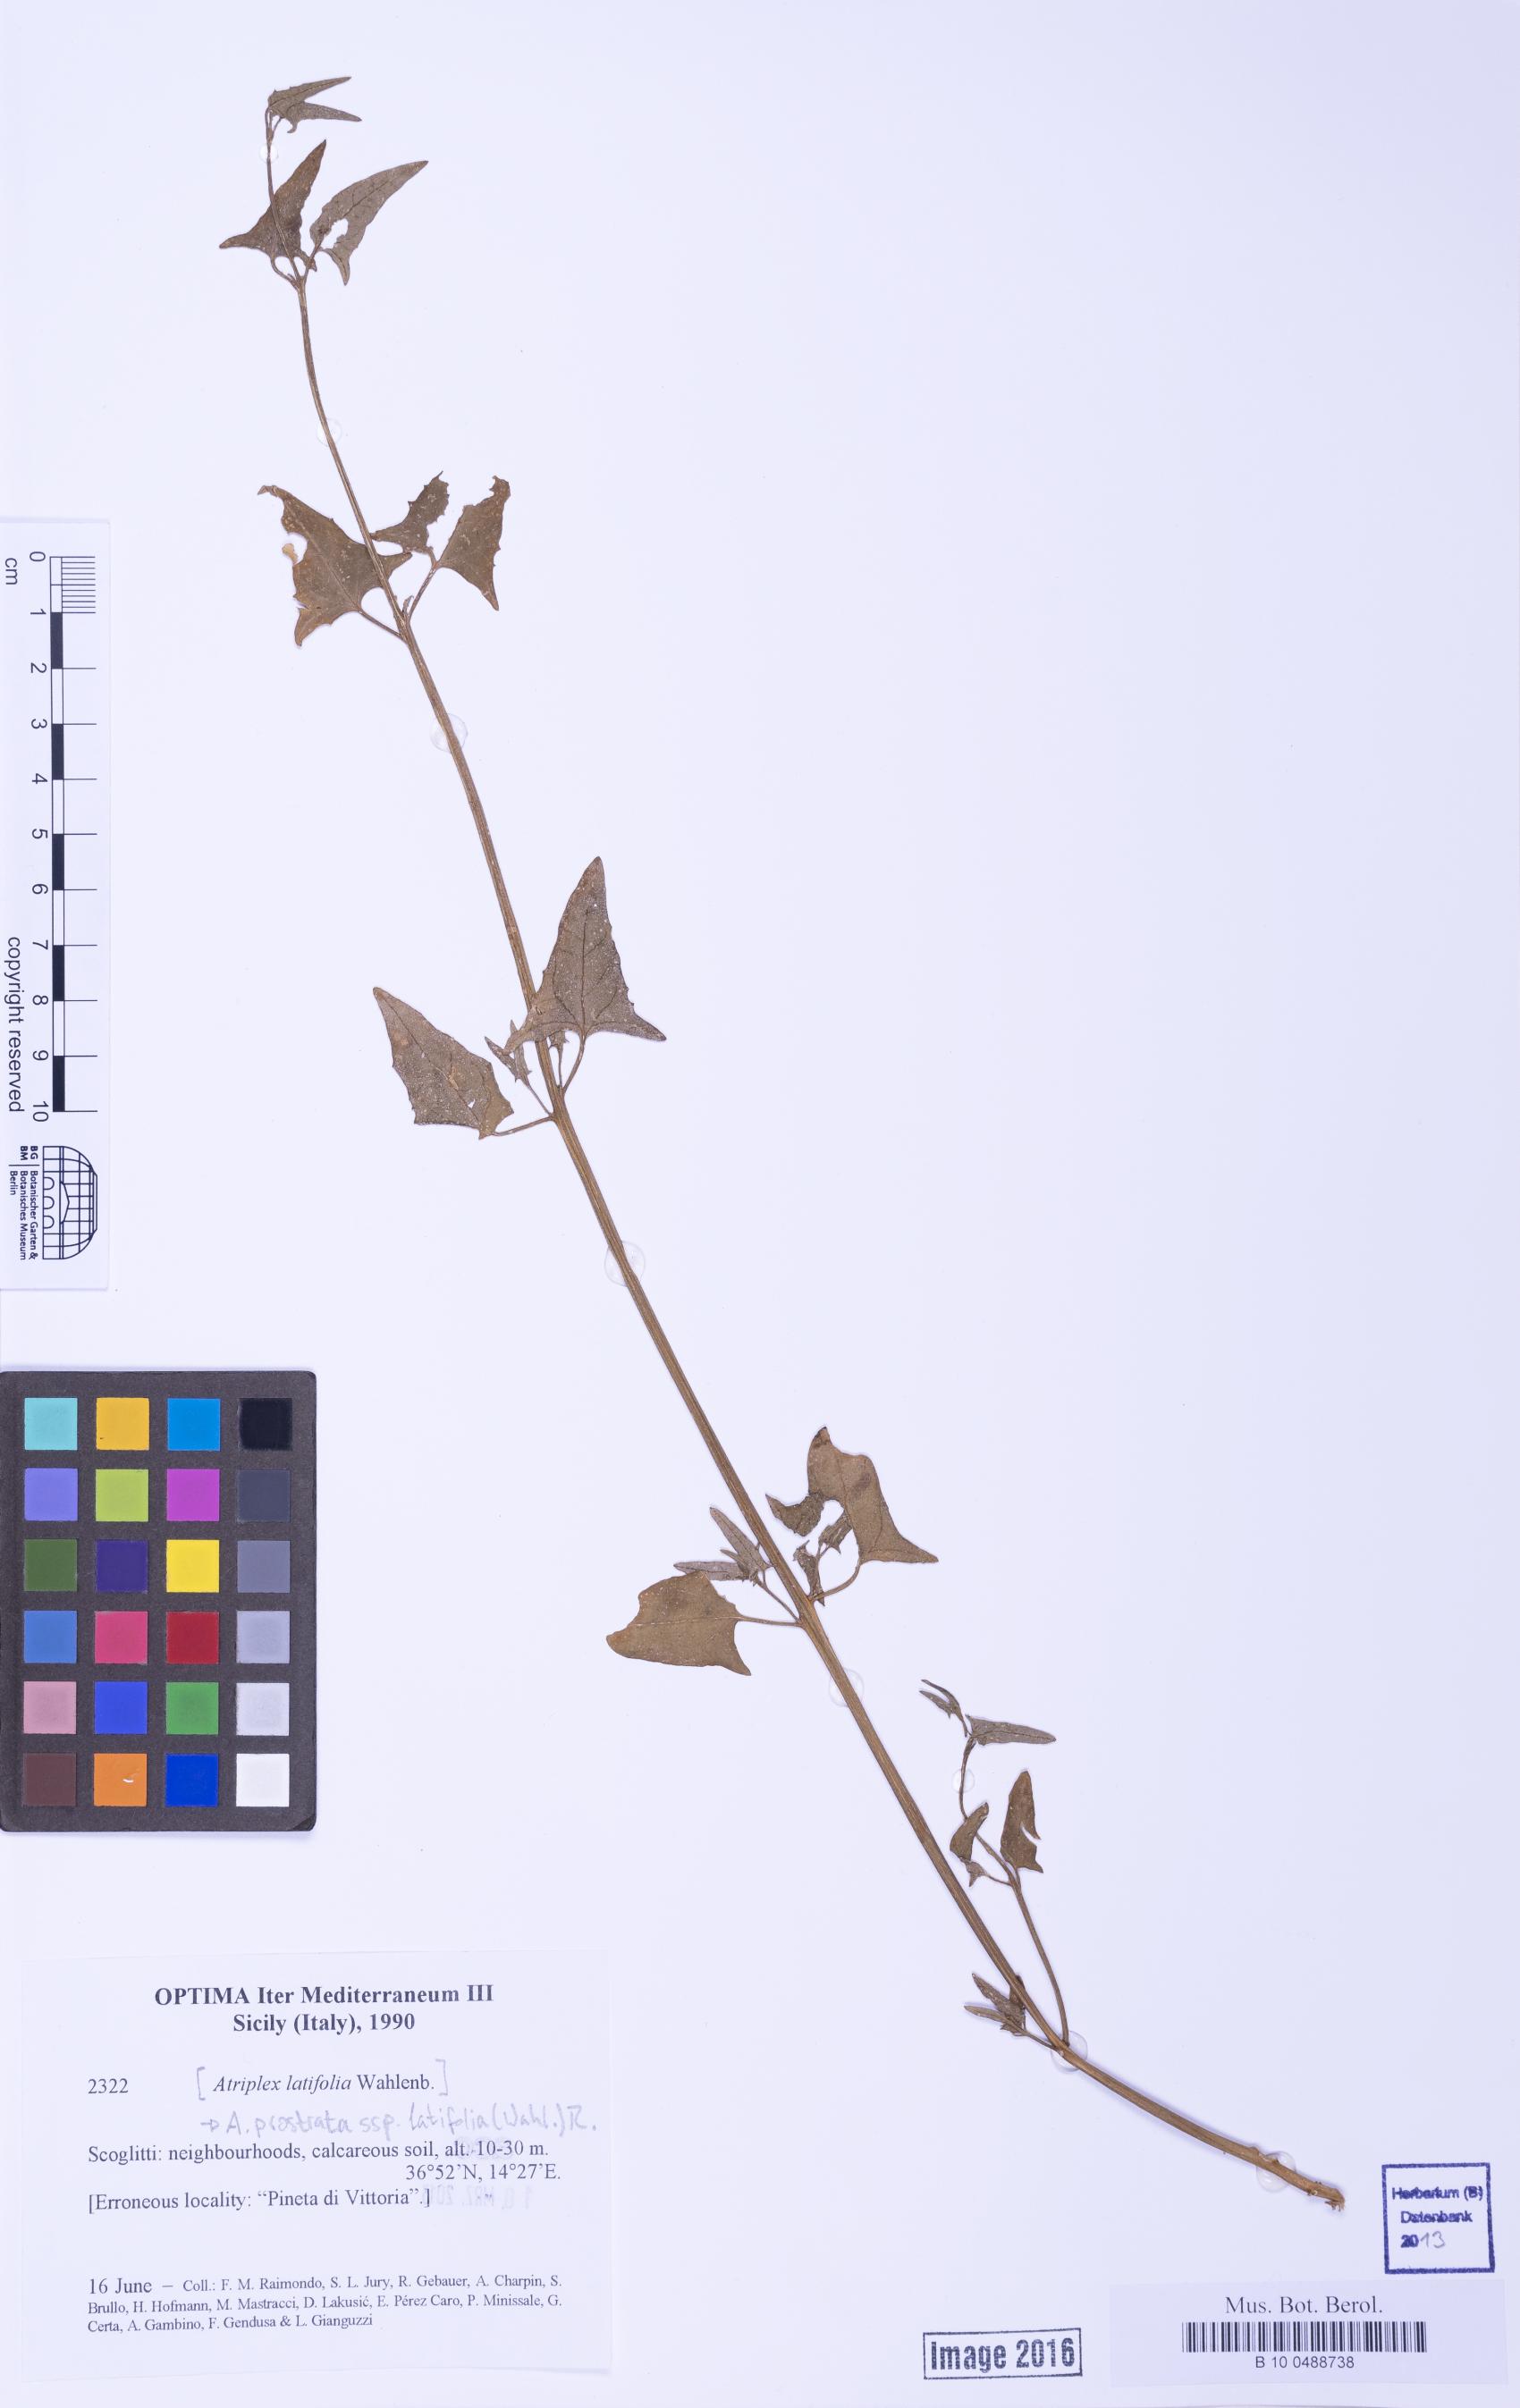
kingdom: Plantae
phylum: Tracheophyta
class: Magnoliopsida
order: Caryophyllales
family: Amaranthaceae
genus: Atriplex
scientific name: Atriplex prostrata
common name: Spear-leaved orache
